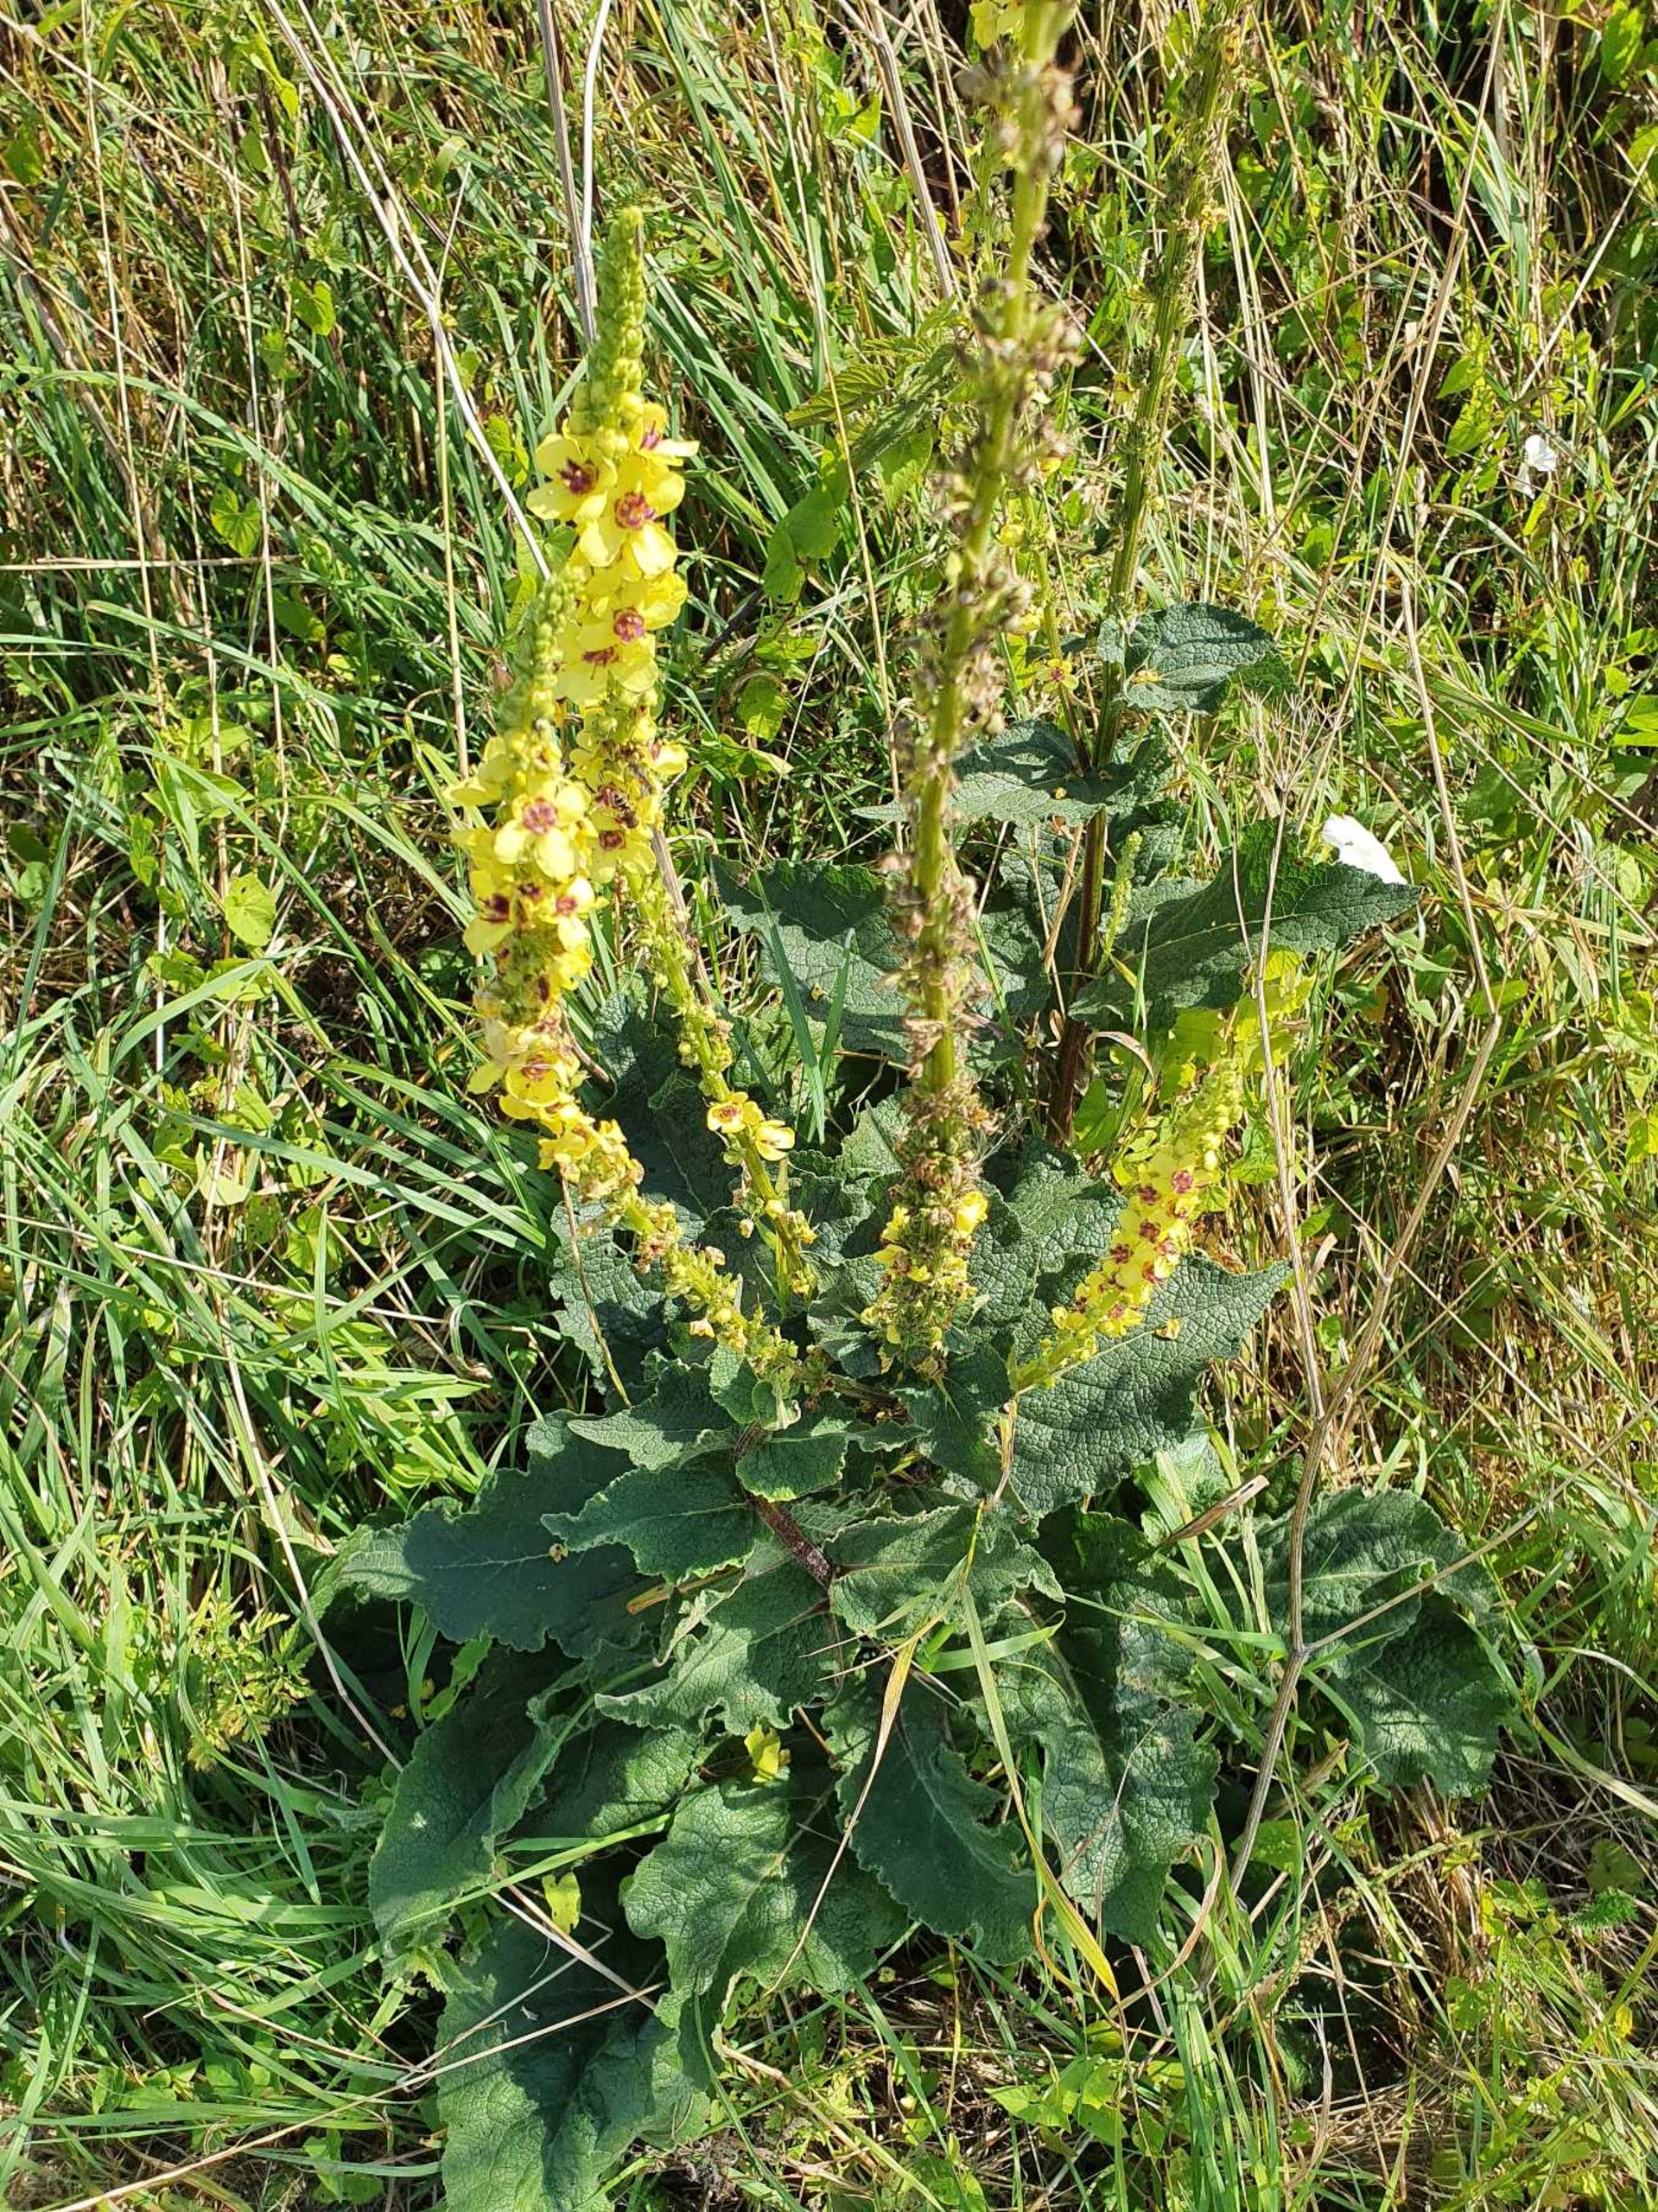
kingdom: Plantae
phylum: Tracheophyta
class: Magnoliopsida
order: Lamiales
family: Scrophulariaceae
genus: Verbascum
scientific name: Verbascum nigrum
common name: Mørk kongelys
